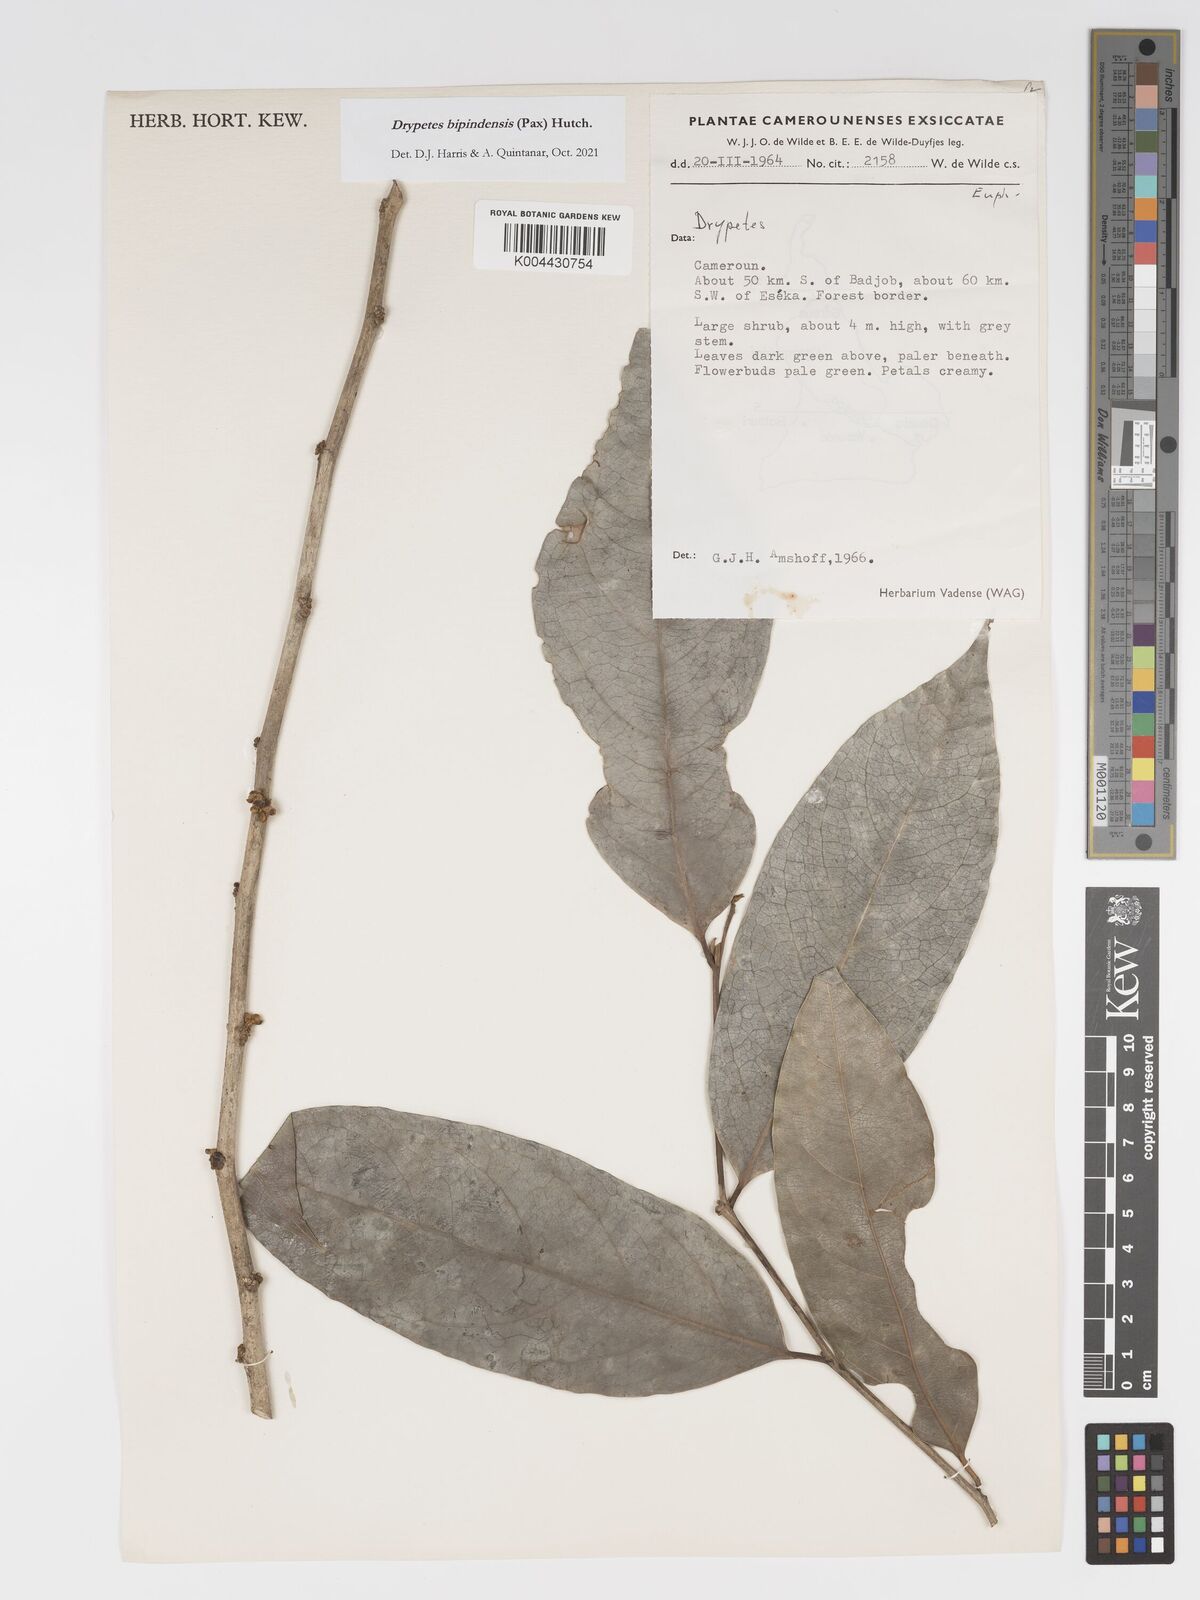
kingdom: Plantae
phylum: Tracheophyta
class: Magnoliopsida
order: Malpighiales
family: Putranjivaceae
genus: Drypetes
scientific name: Drypetes bipindensis
